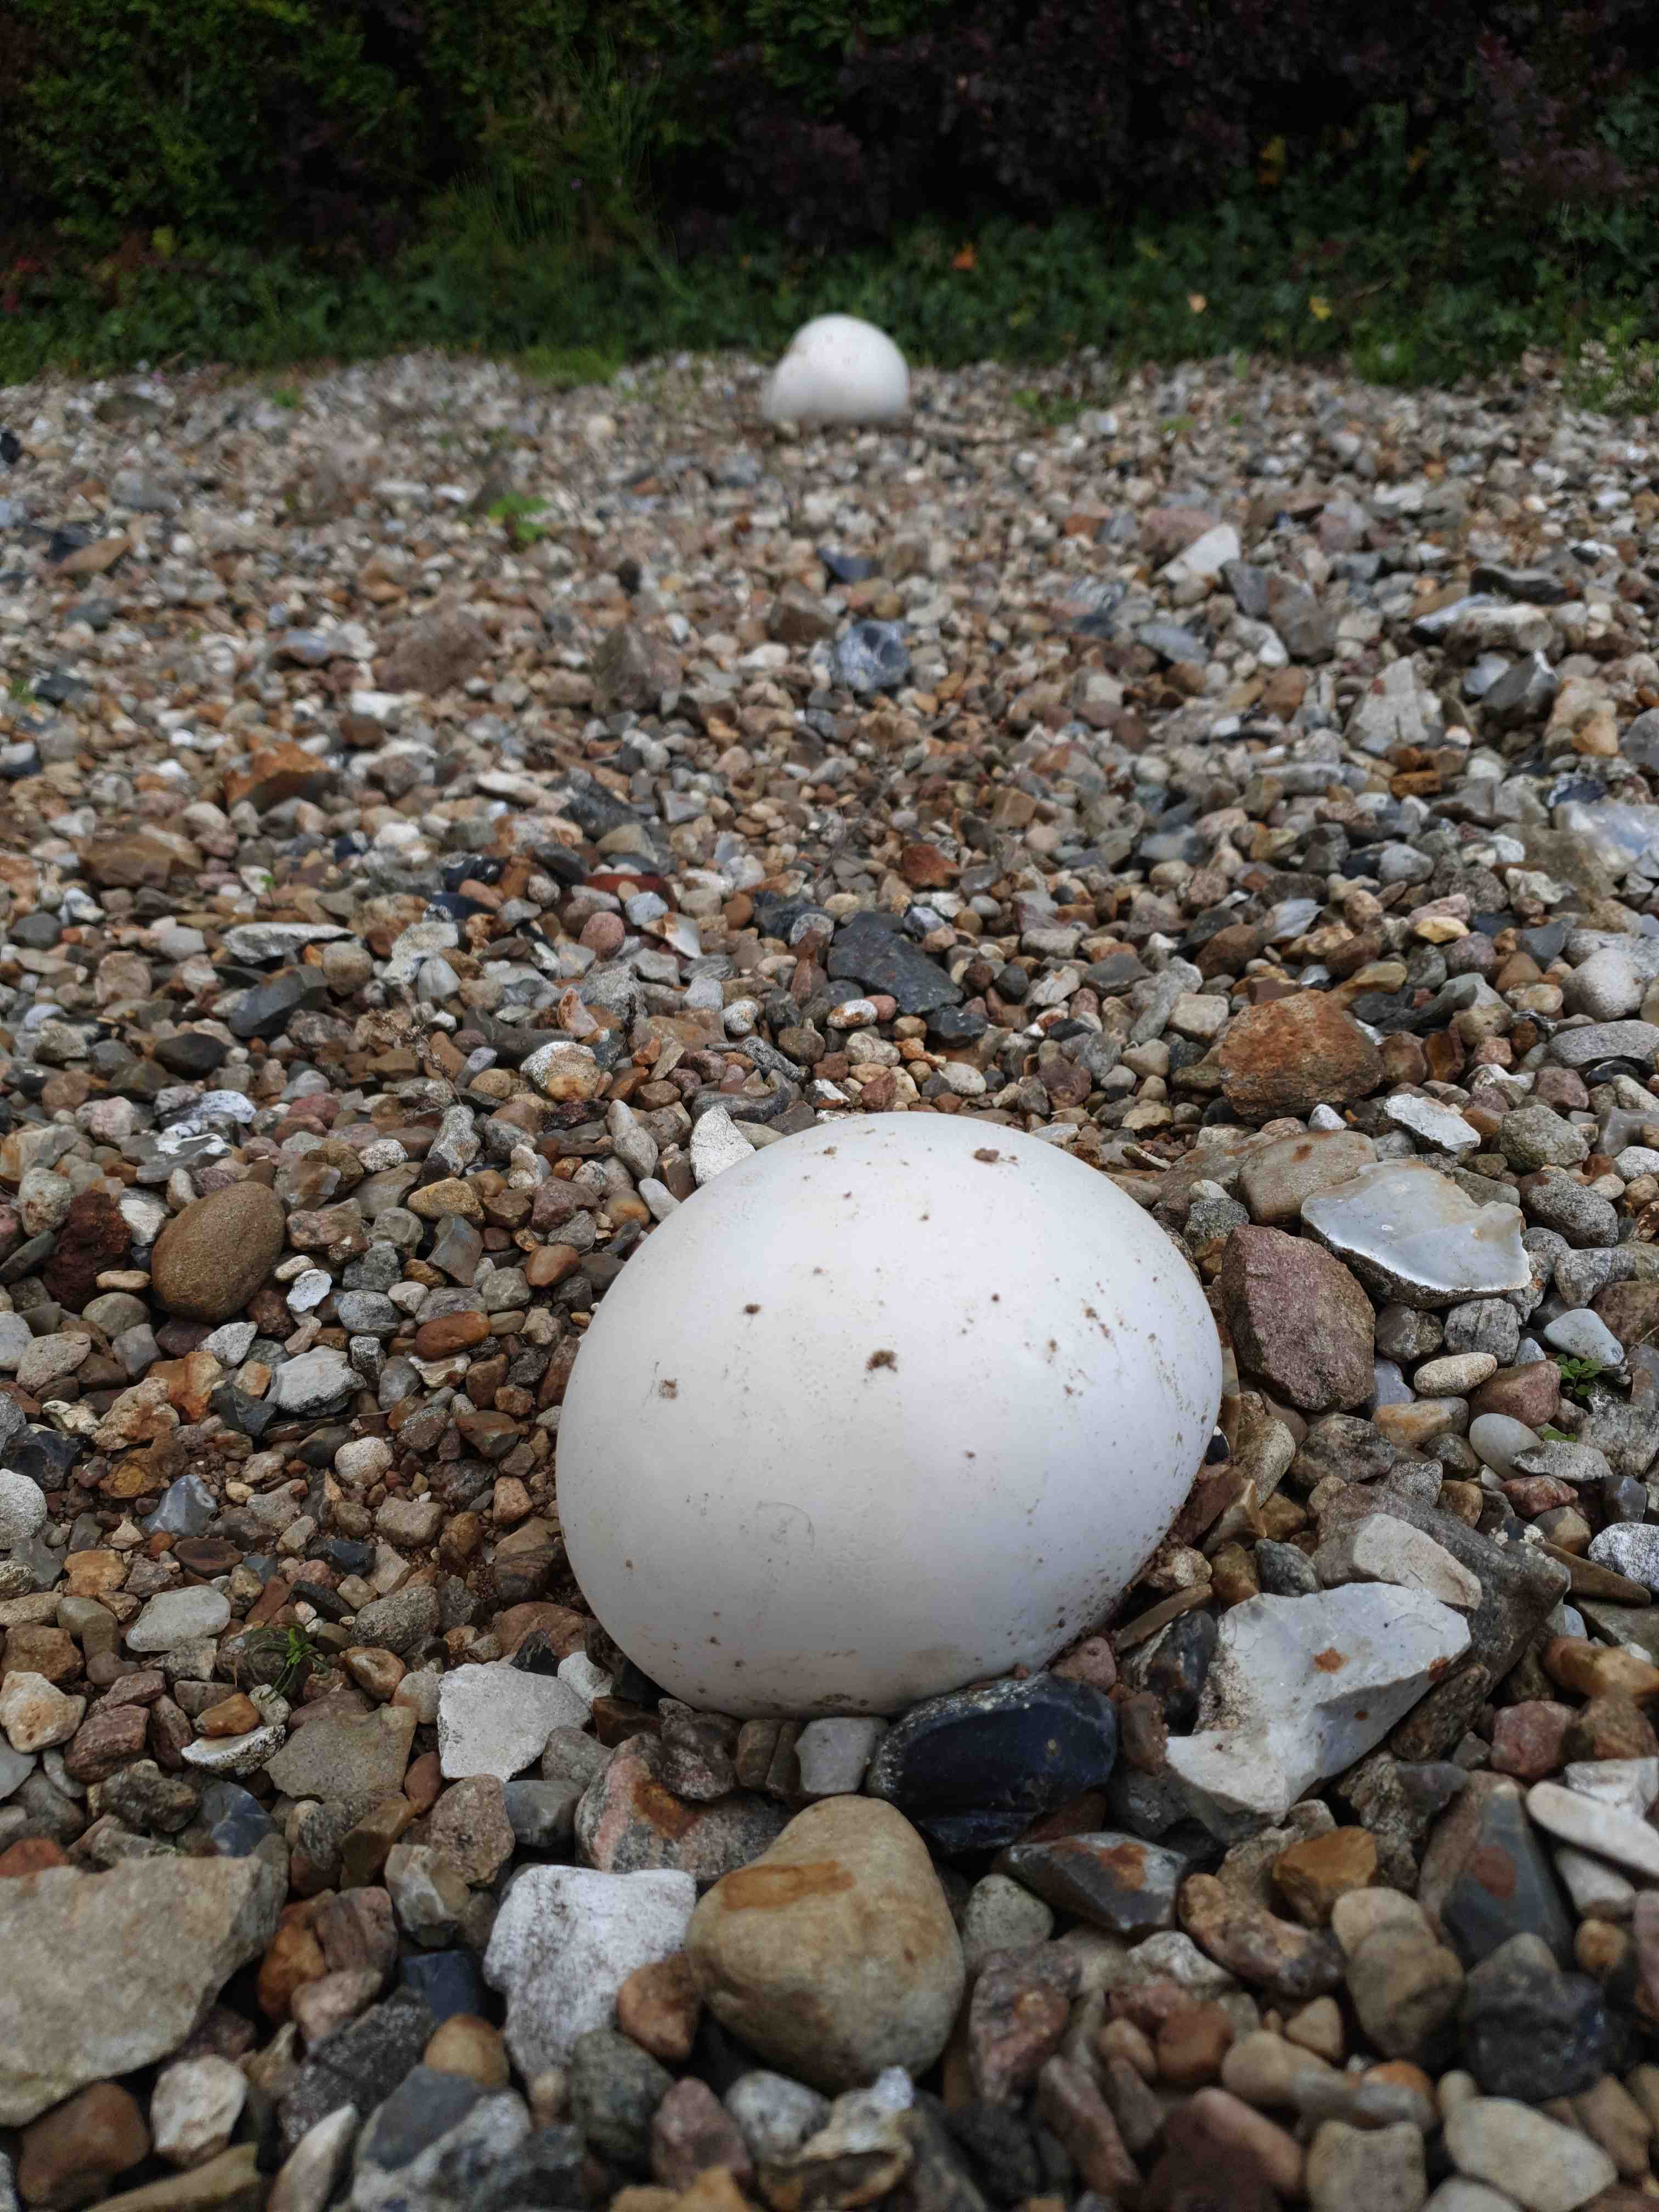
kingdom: Fungi
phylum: Basidiomycota
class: Agaricomycetes
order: Agaricales
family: Lycoperdaceae
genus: Calvatia
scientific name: Calvatia gigantea
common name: kæmpestøvbold
